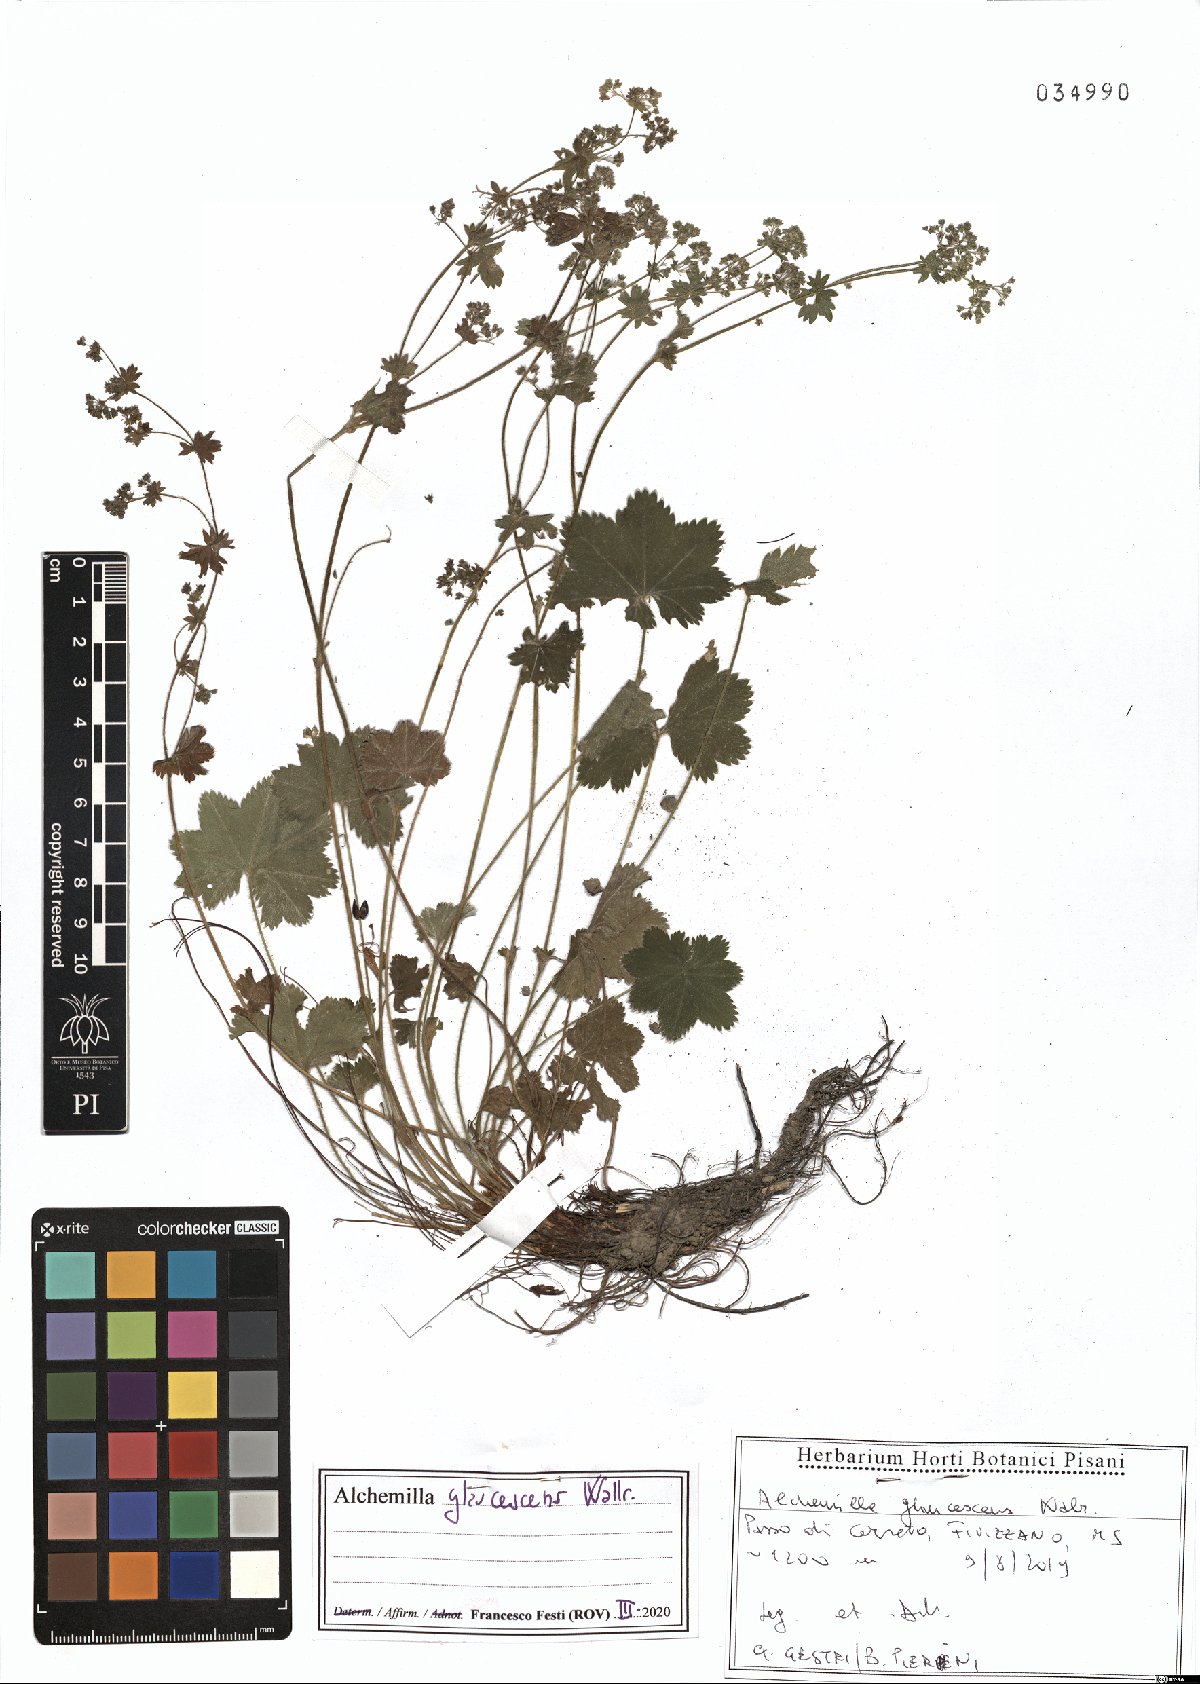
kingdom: Plantae
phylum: Tracheophyta
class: Magnoliopsida
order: Rosales
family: Rosaceae
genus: Alchemilla
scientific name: Alchemilla glaucescens
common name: Silky lady's mantle
